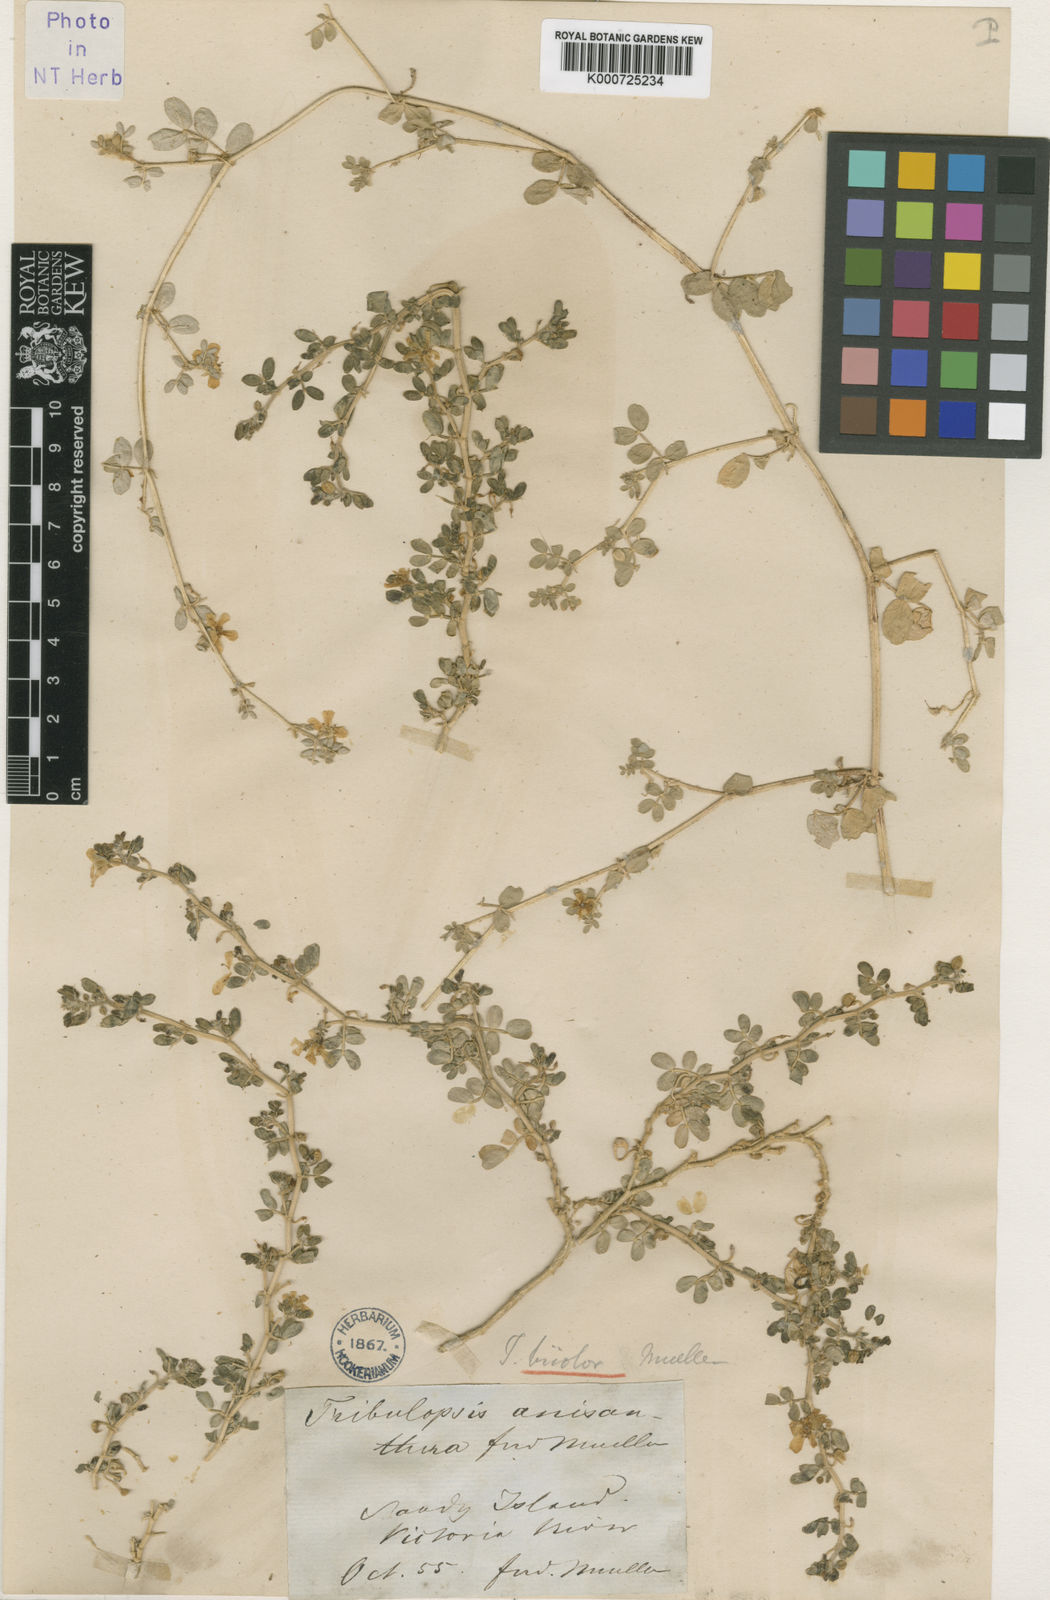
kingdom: Plantae
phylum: Tracheophyta
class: Magnoliopsida
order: Zygophyllales
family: Zygophyllaceae
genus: Tribulopis
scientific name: Tribulopis bicolor
